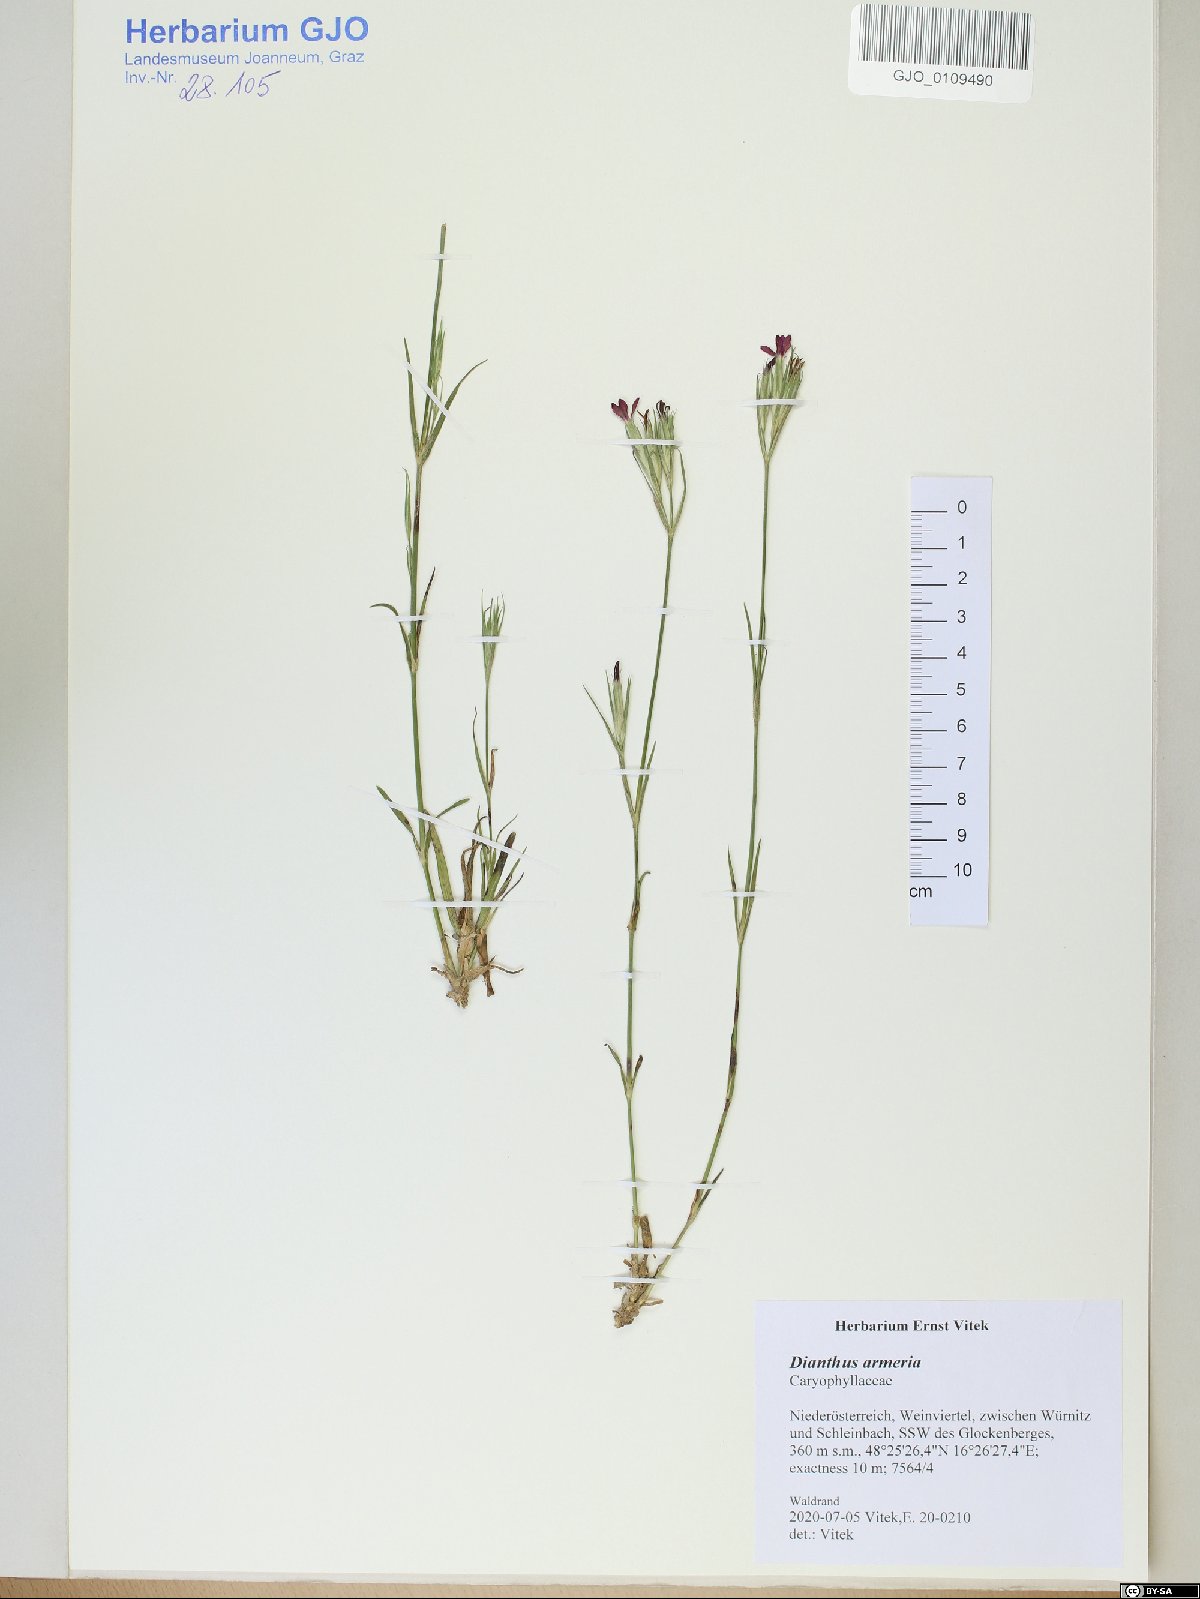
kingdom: Plantae
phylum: Tracheophyta
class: Magnoliopsida
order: Caryophyllales
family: Caryophyllaceae
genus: Dianthus
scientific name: Dianthus armeria
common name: Deptford pink
